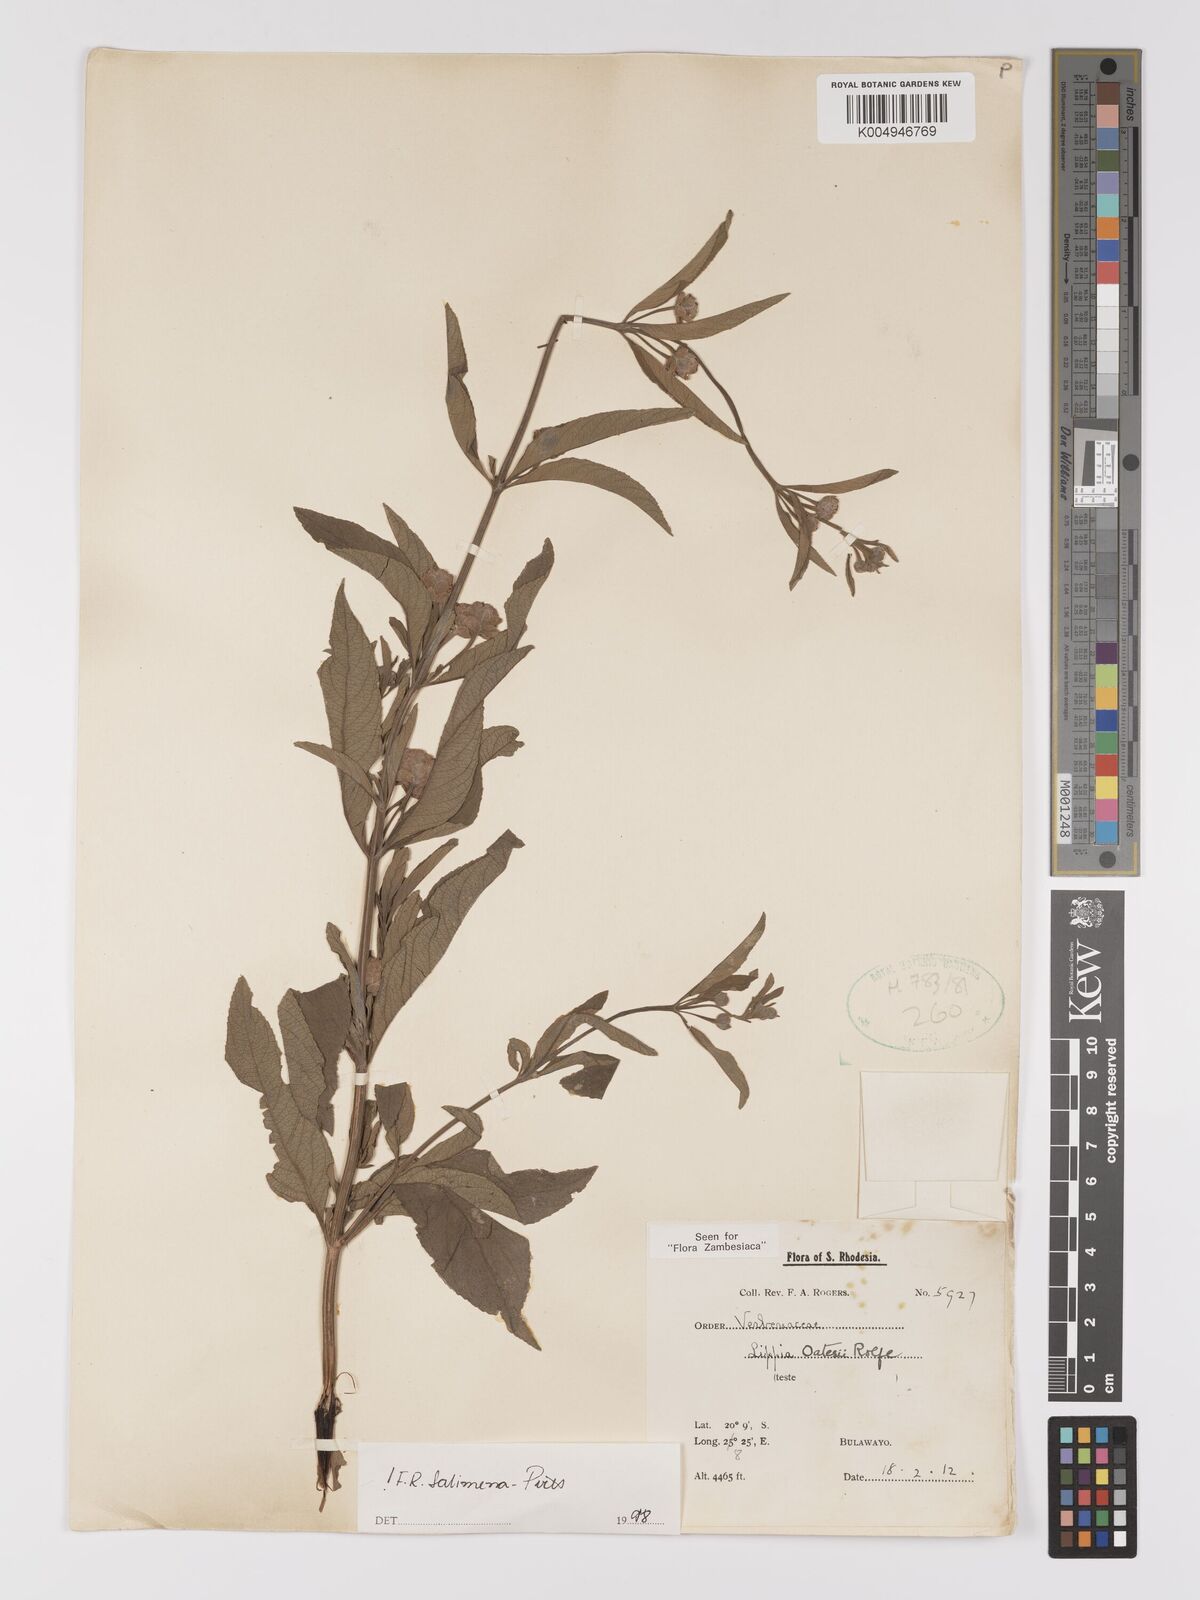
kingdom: Plantae
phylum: Tracheophyta
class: Magnoliopsida
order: Lamiales
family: Verbenaceae
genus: Lippia
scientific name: Lippia oatesii
